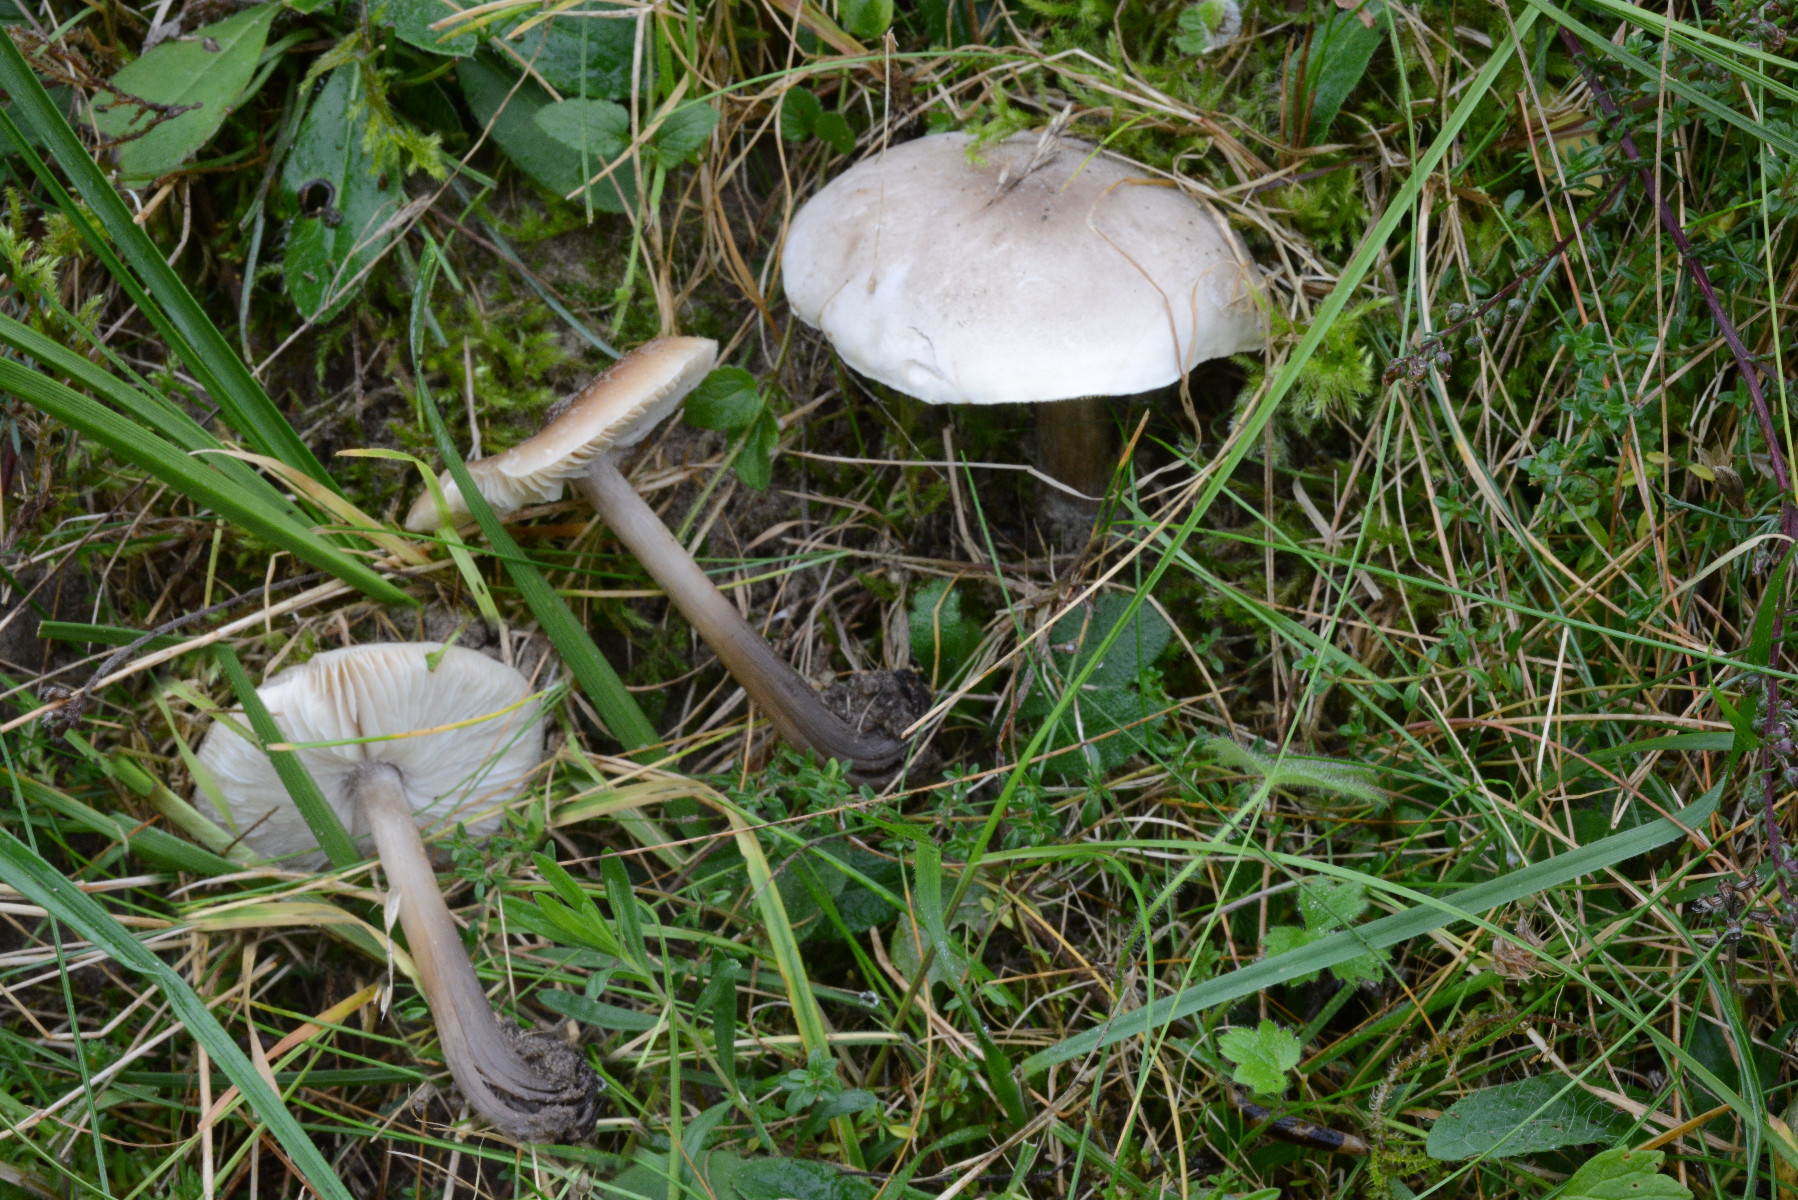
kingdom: Fungi
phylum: Basidiomycota
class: Agaricomycetes
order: Agaricales
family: Tricholomataceae
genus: Melanoleuca
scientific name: Melanoleuca polioleuca
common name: hvidbladet munkehat
